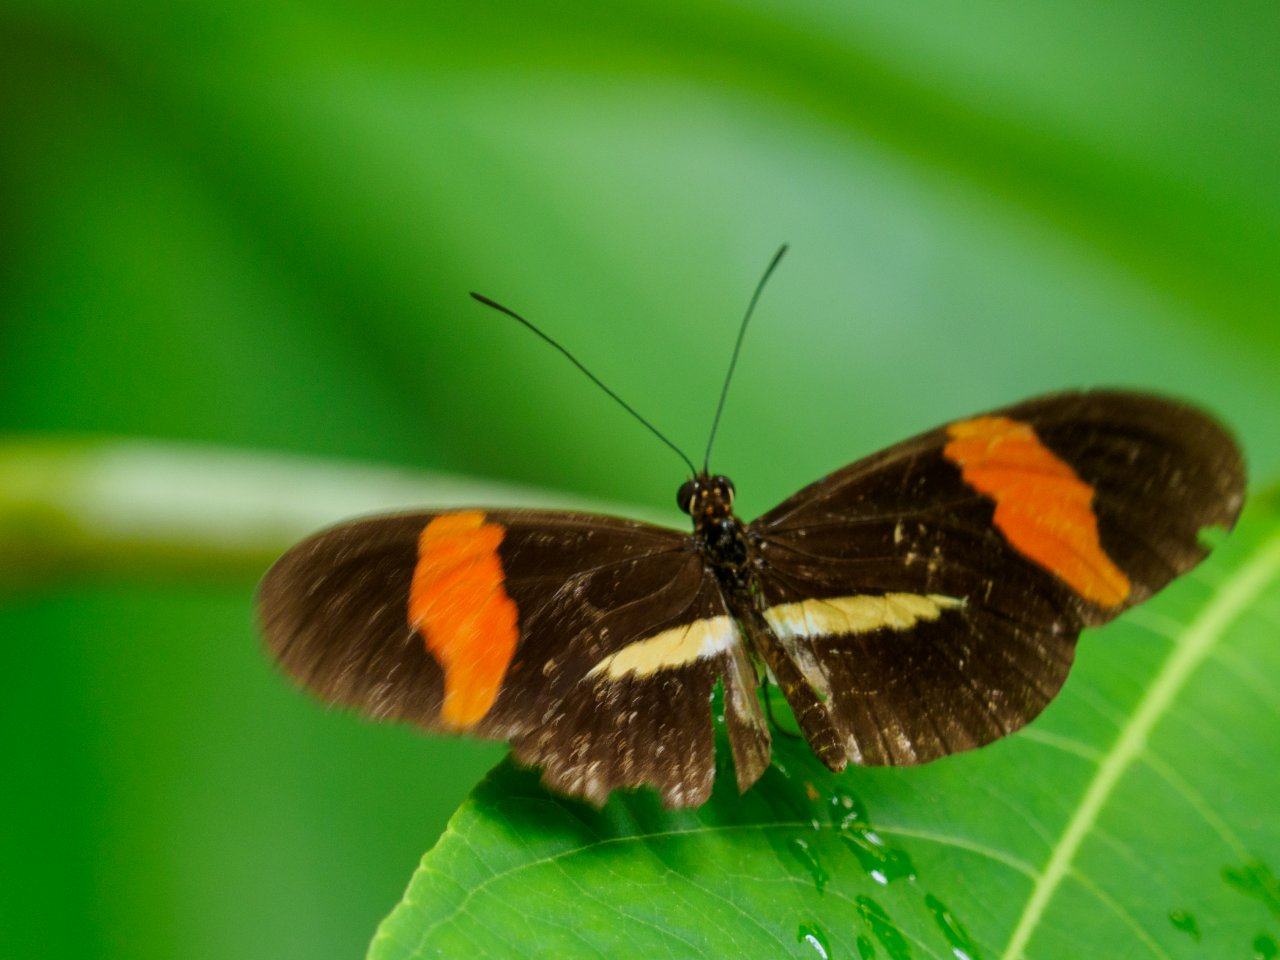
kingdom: Animalia
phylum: Arthropoda
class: Insecta
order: Lepidoptera
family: Nymphalidae
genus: Heliconius
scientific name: Heliconius erato
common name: Erato Heliconian
